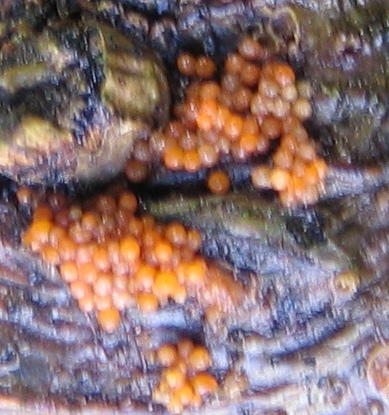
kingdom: Fungi
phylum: Ascomycota
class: Sordariomycetes
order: Hypocreales
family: Nectriaceae
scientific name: Nectriaceae
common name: cinnobersvampfamilien
